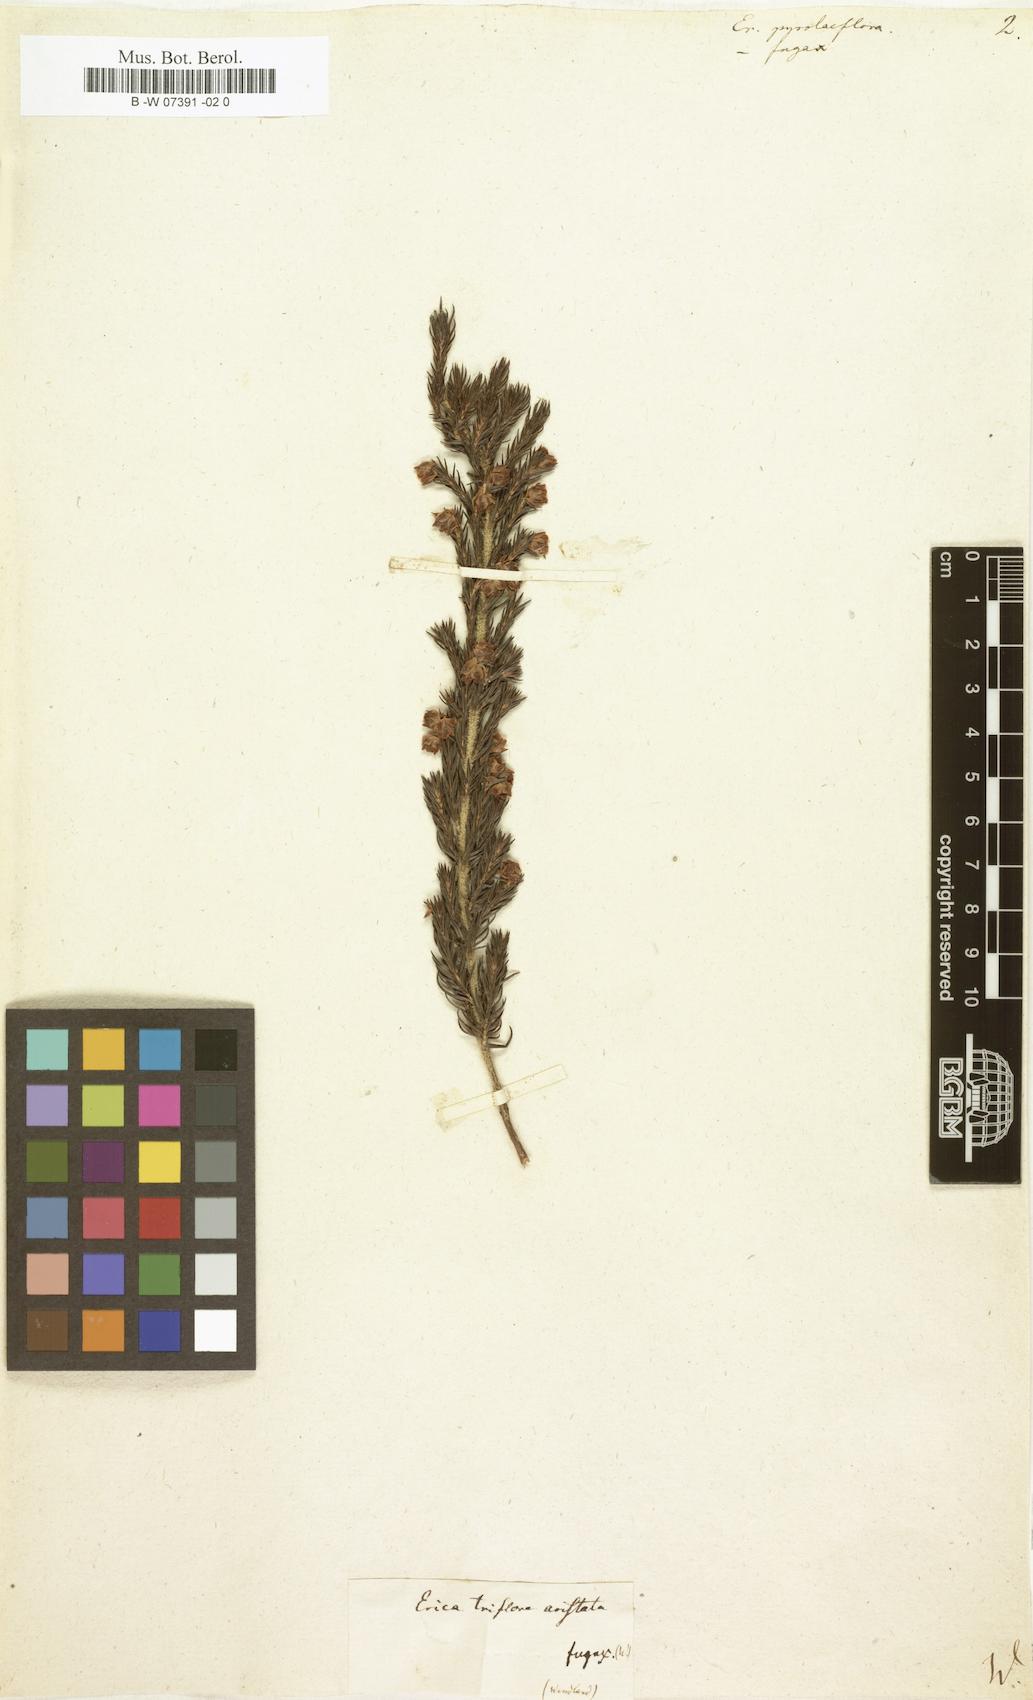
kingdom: Plantae
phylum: Tracheophyta
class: Magnoliopsida
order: Ericales
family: Ericaceae
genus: Erica
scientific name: Erica triflora
